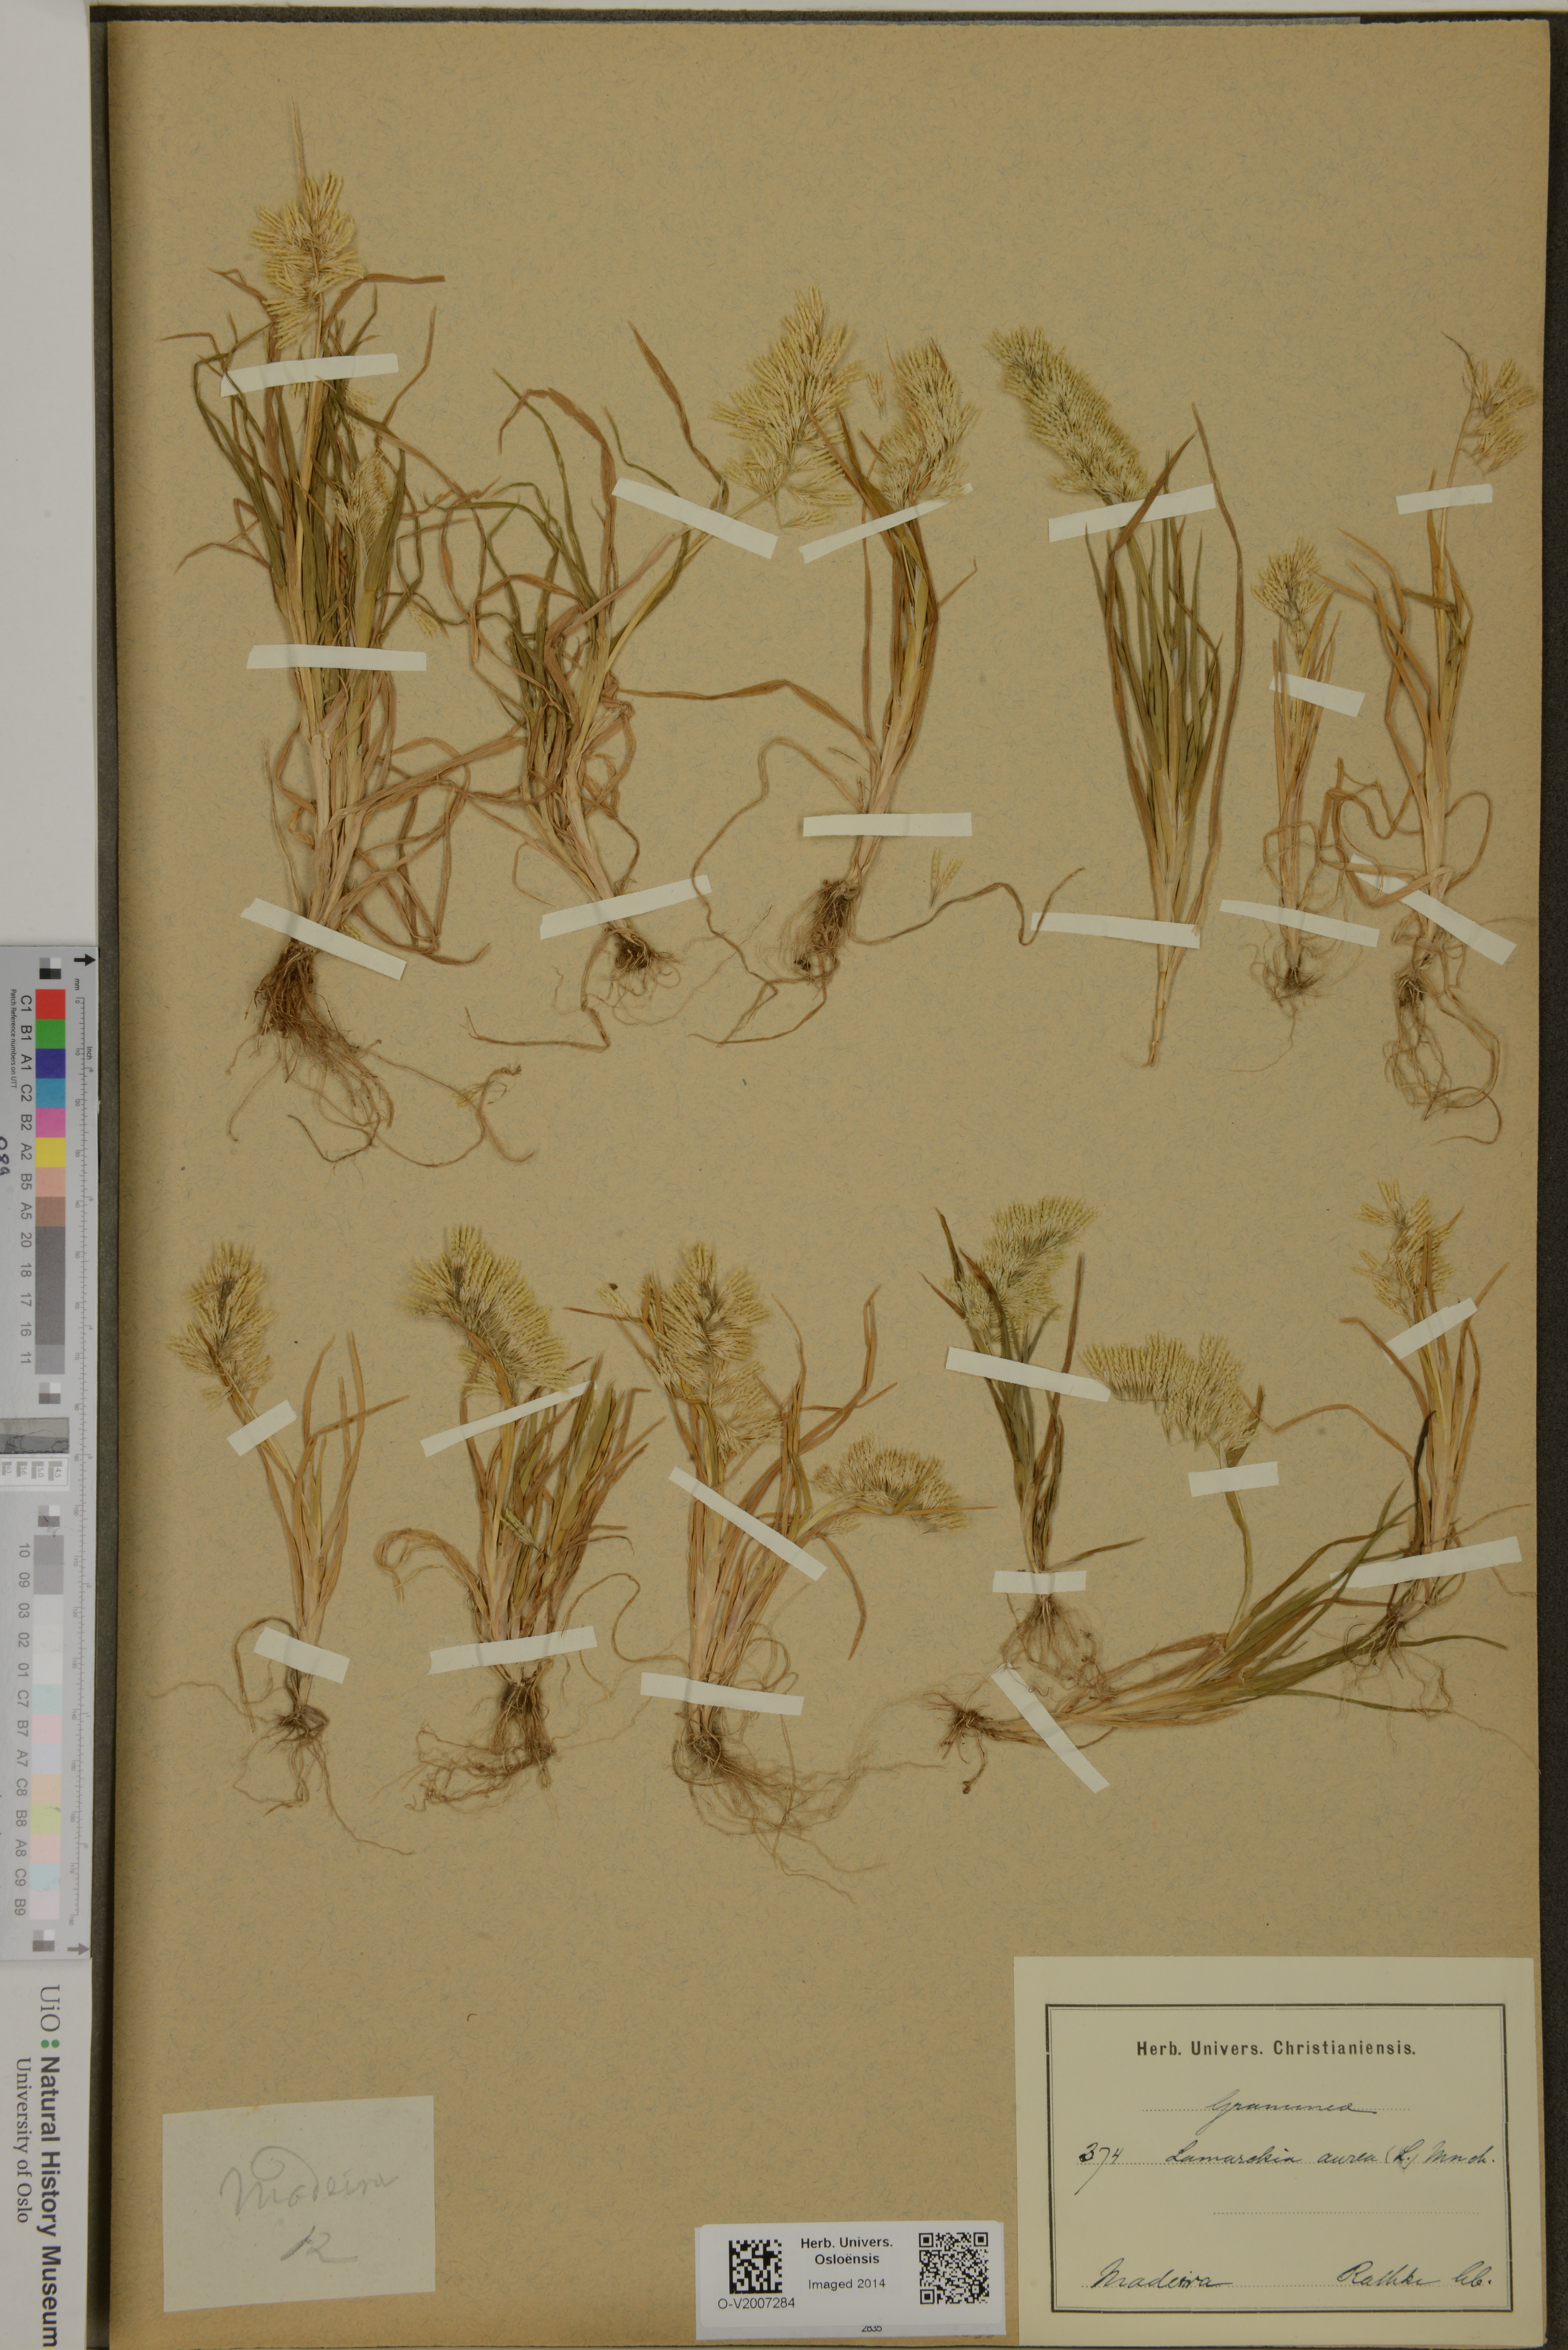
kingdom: Plantae
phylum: Tracheophyta
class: Liliopsida
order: Poales
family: Poaceae
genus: Lamarckia
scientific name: Lamarckia aurea
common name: Golden dog's-tail
